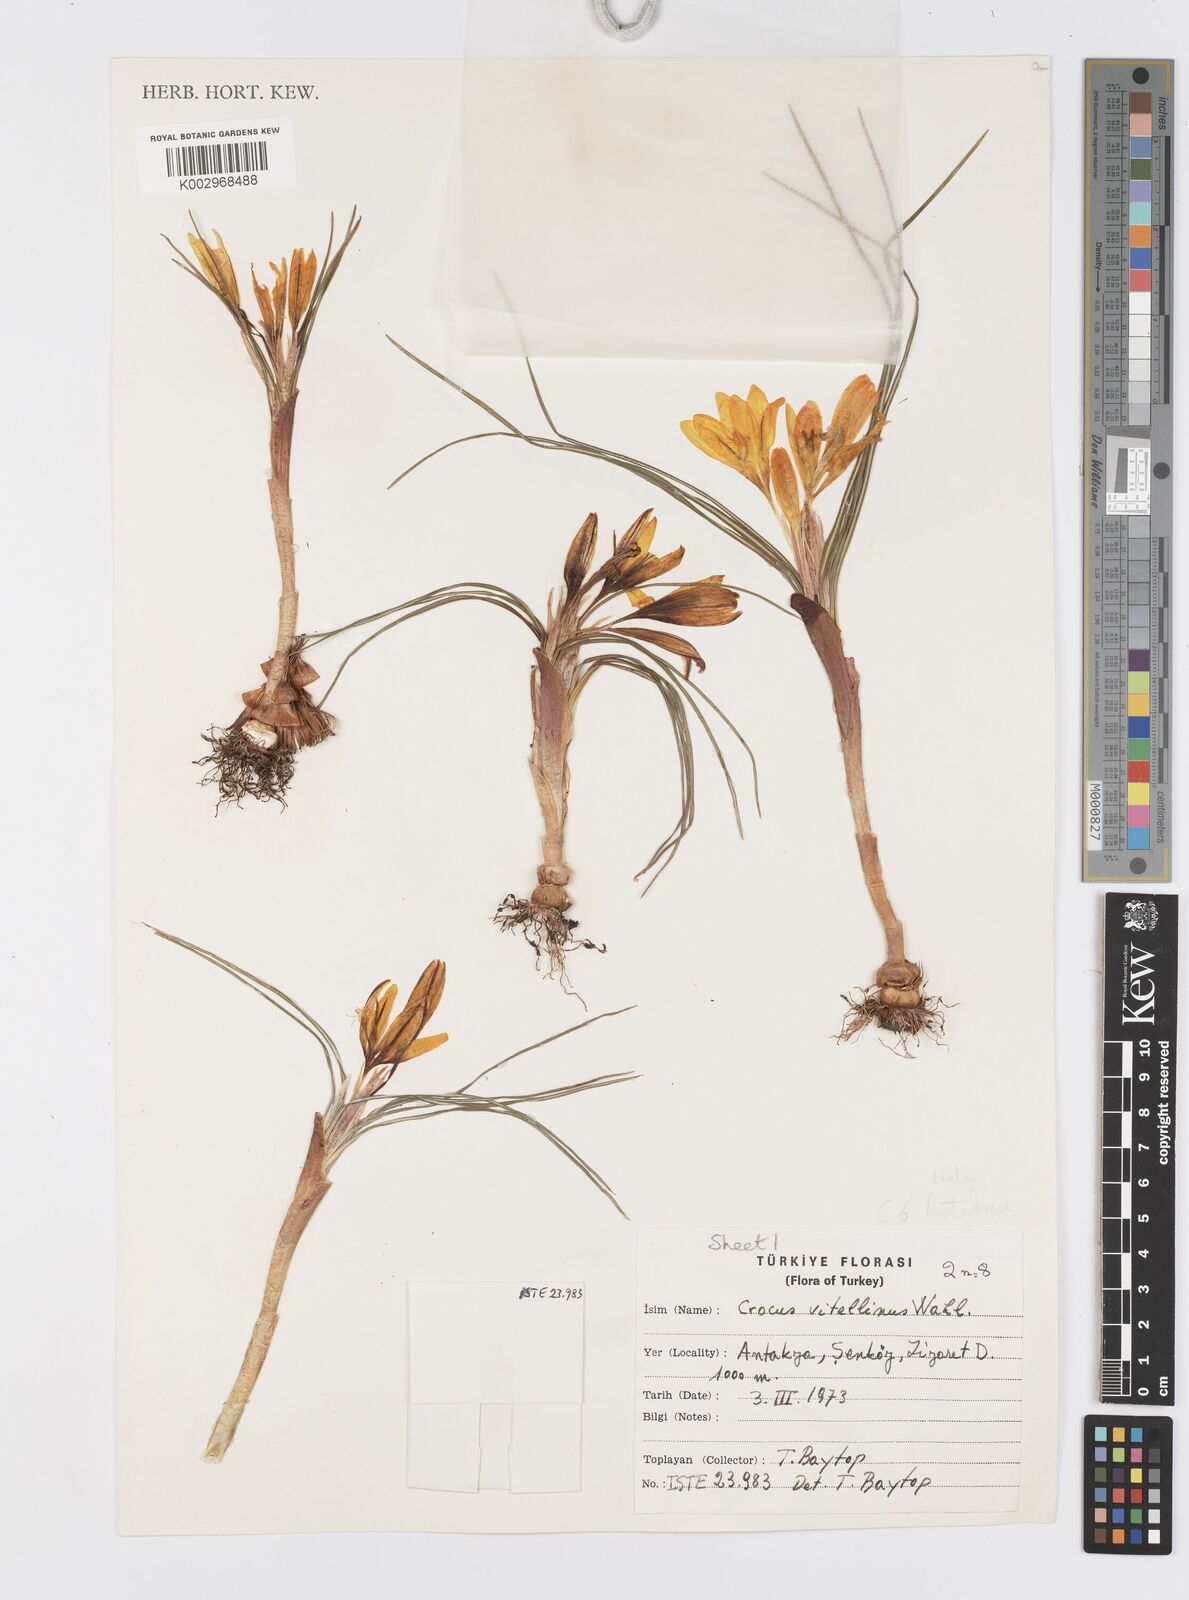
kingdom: Plantae
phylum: Tracheophyta
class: Liliopsida
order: Asparagales
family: Iridaceae
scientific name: Iridaceae
